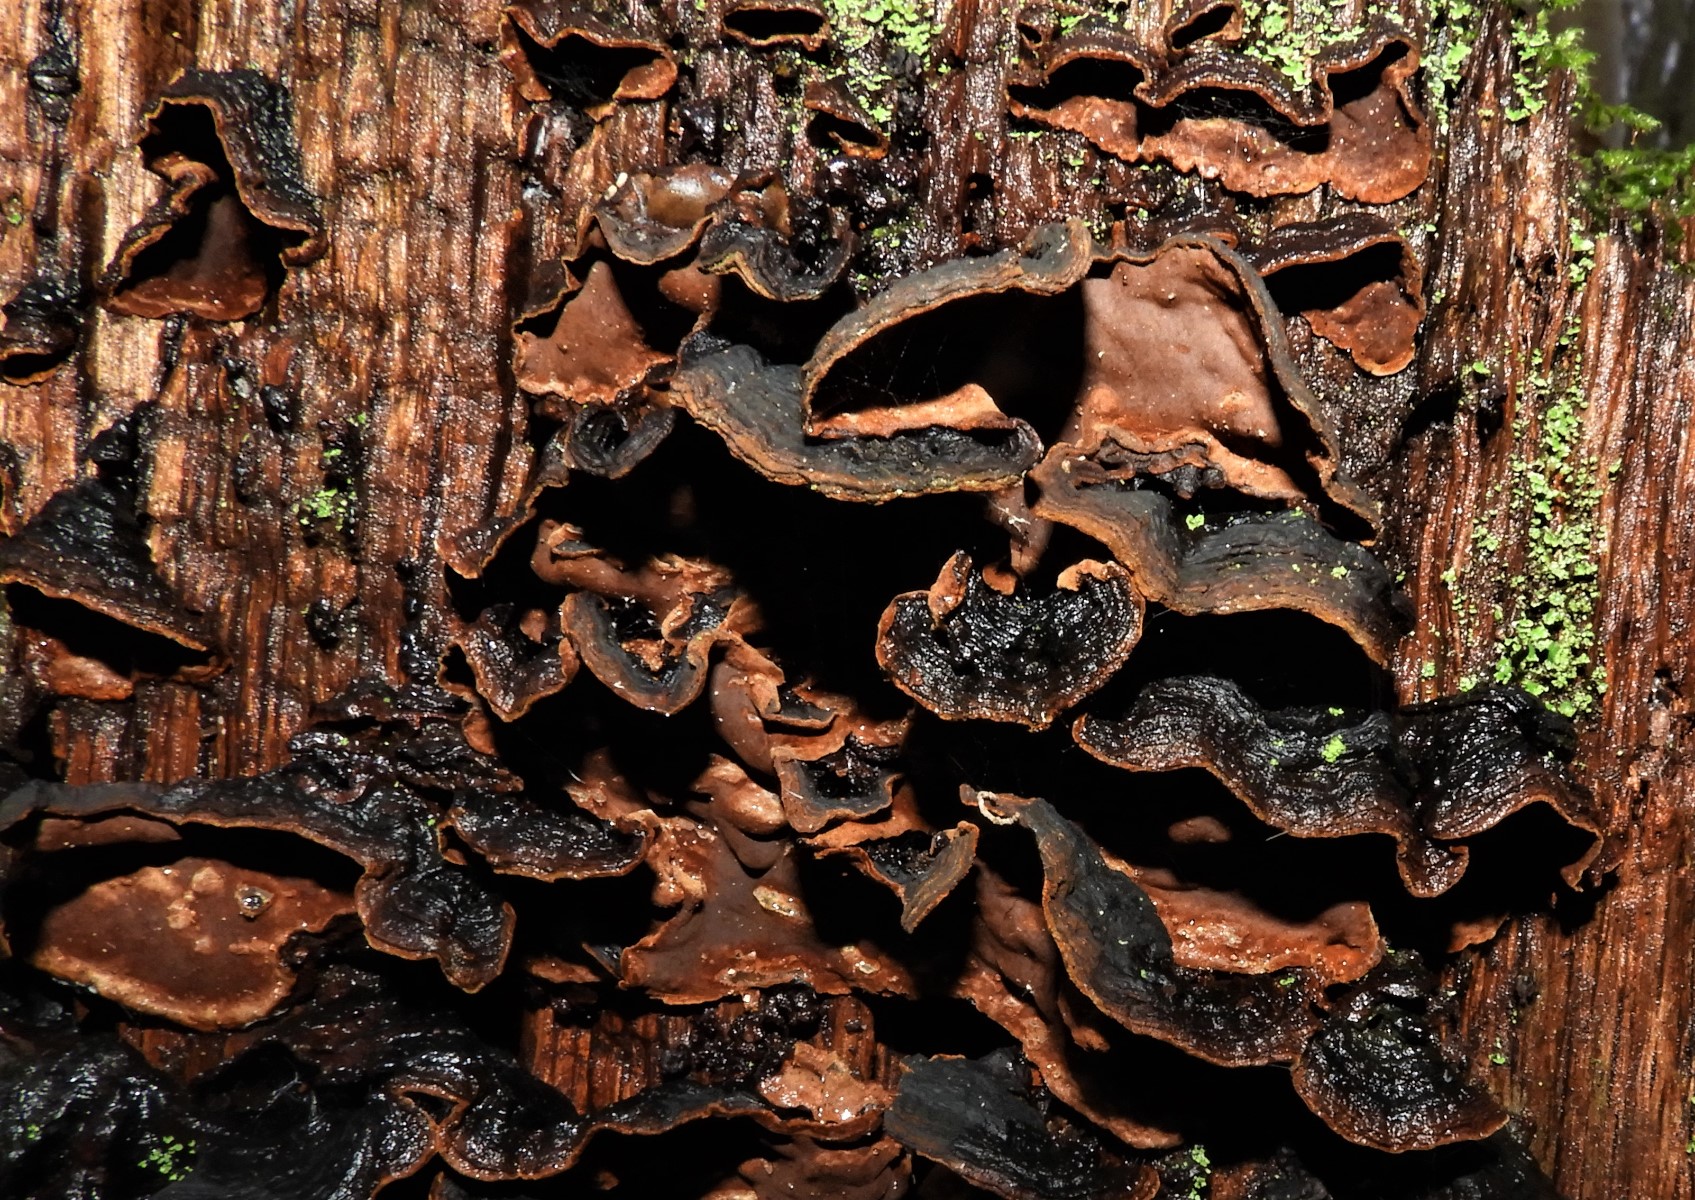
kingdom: Fungi
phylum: Basidiomycota
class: Agaricomycetes
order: Hymenochaetales
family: Hymenochaetaceae
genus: Hymenochaete
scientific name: Hymenochaete rubiginosa
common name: stiv ruslædersvamp
